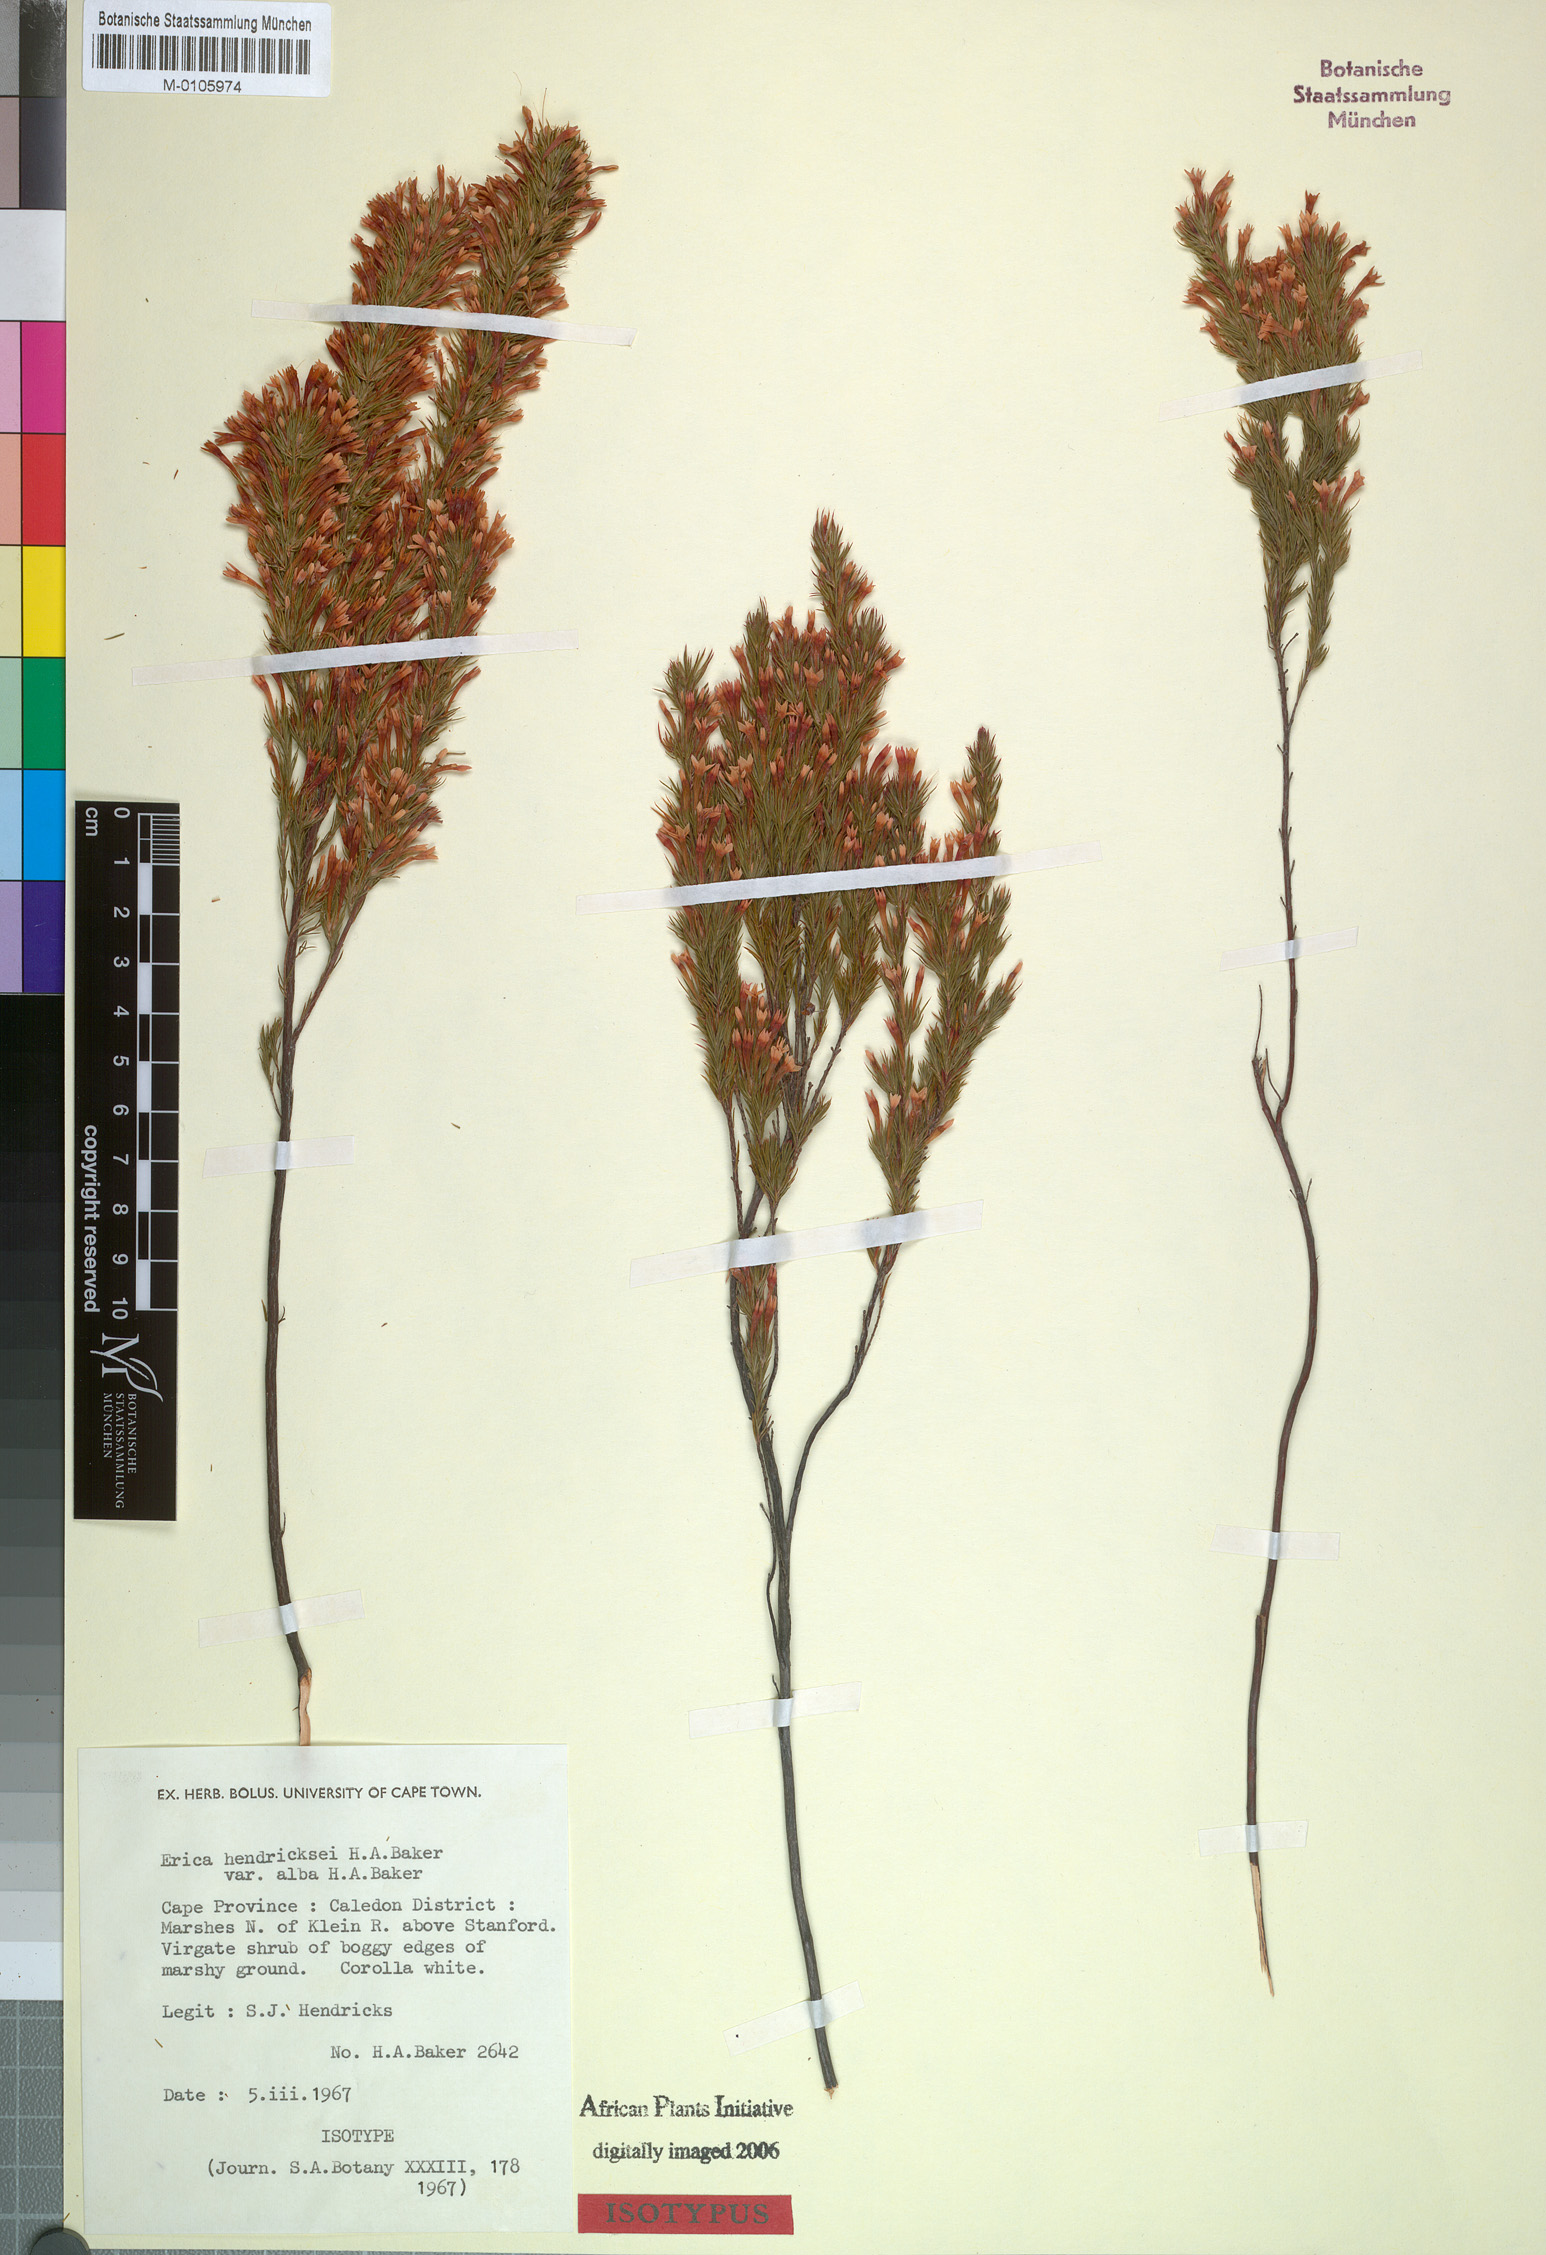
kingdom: Plantae
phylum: Tracheophyta
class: Magnoliopsida
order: Ericales
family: Ericaceae
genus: Erica
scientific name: Erica hendricksei
